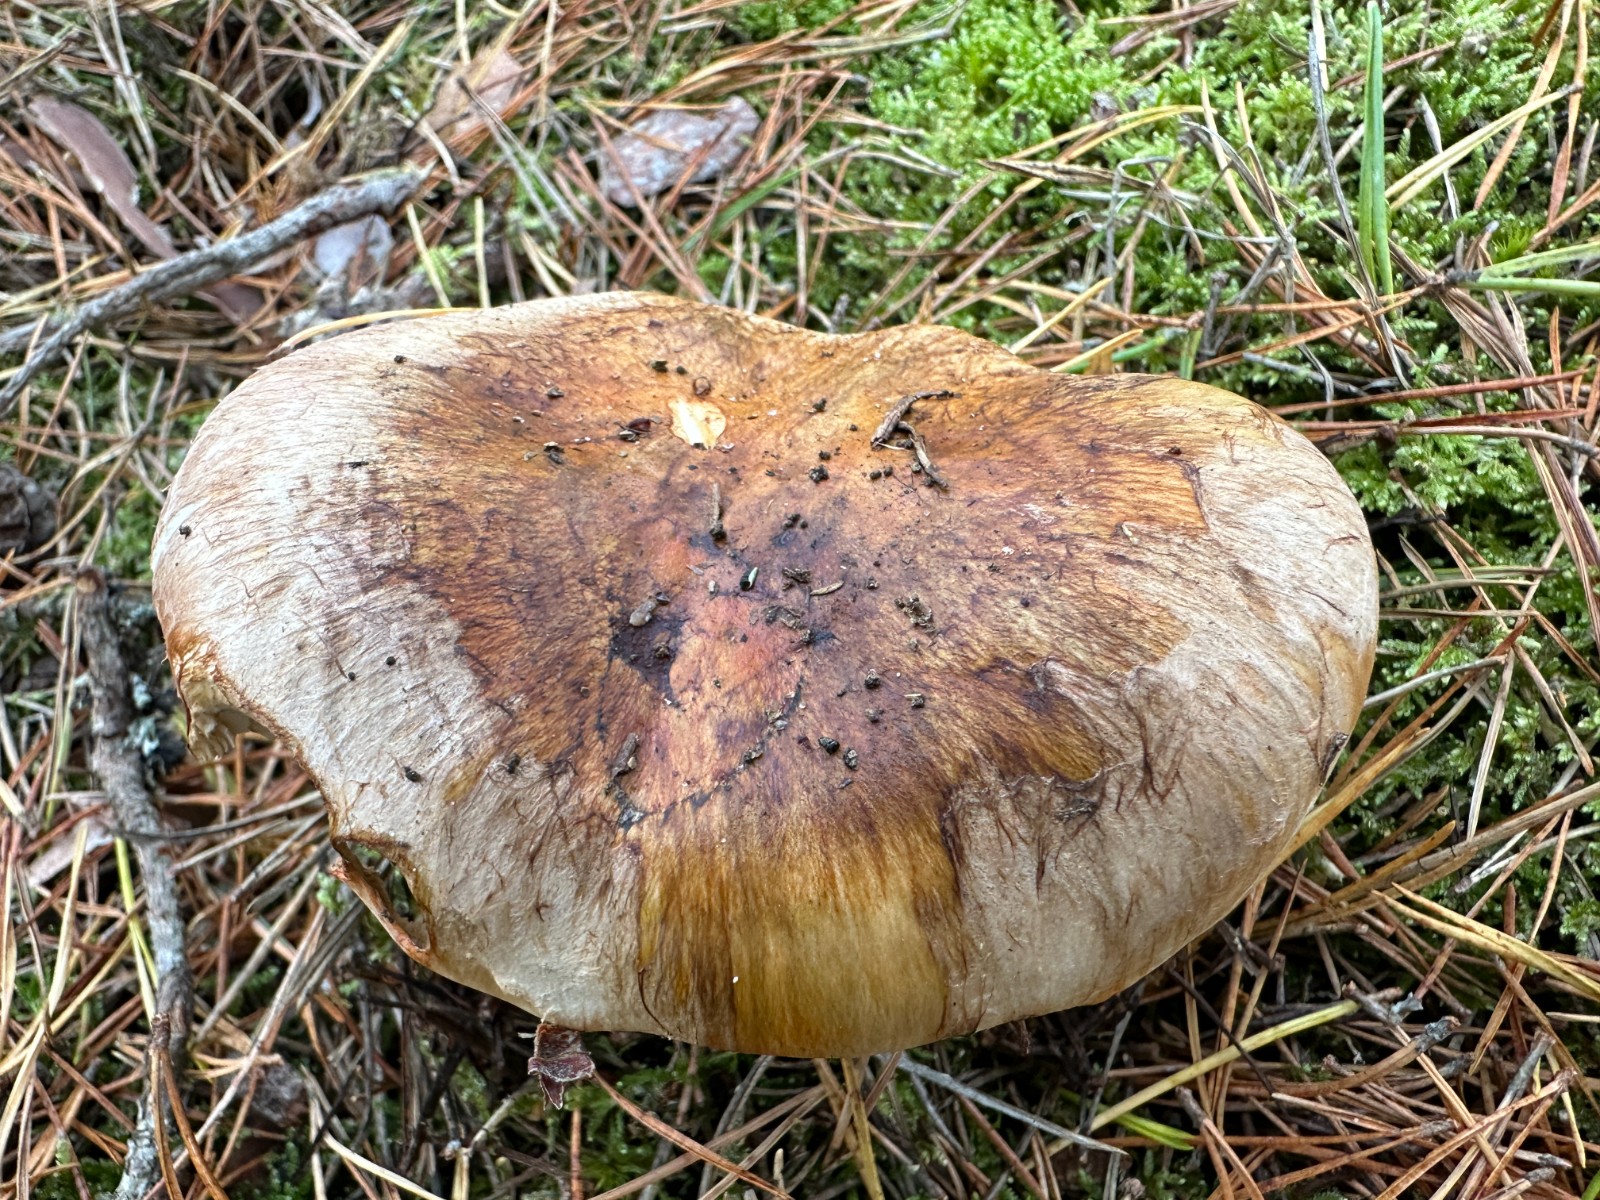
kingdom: Fungi
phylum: Basidiomycota
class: Agaricomycetes
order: Agaricales
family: Tricholomataceae
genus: Tricholoma
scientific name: Tricholoma focale
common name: halsbånd-ridderhat
